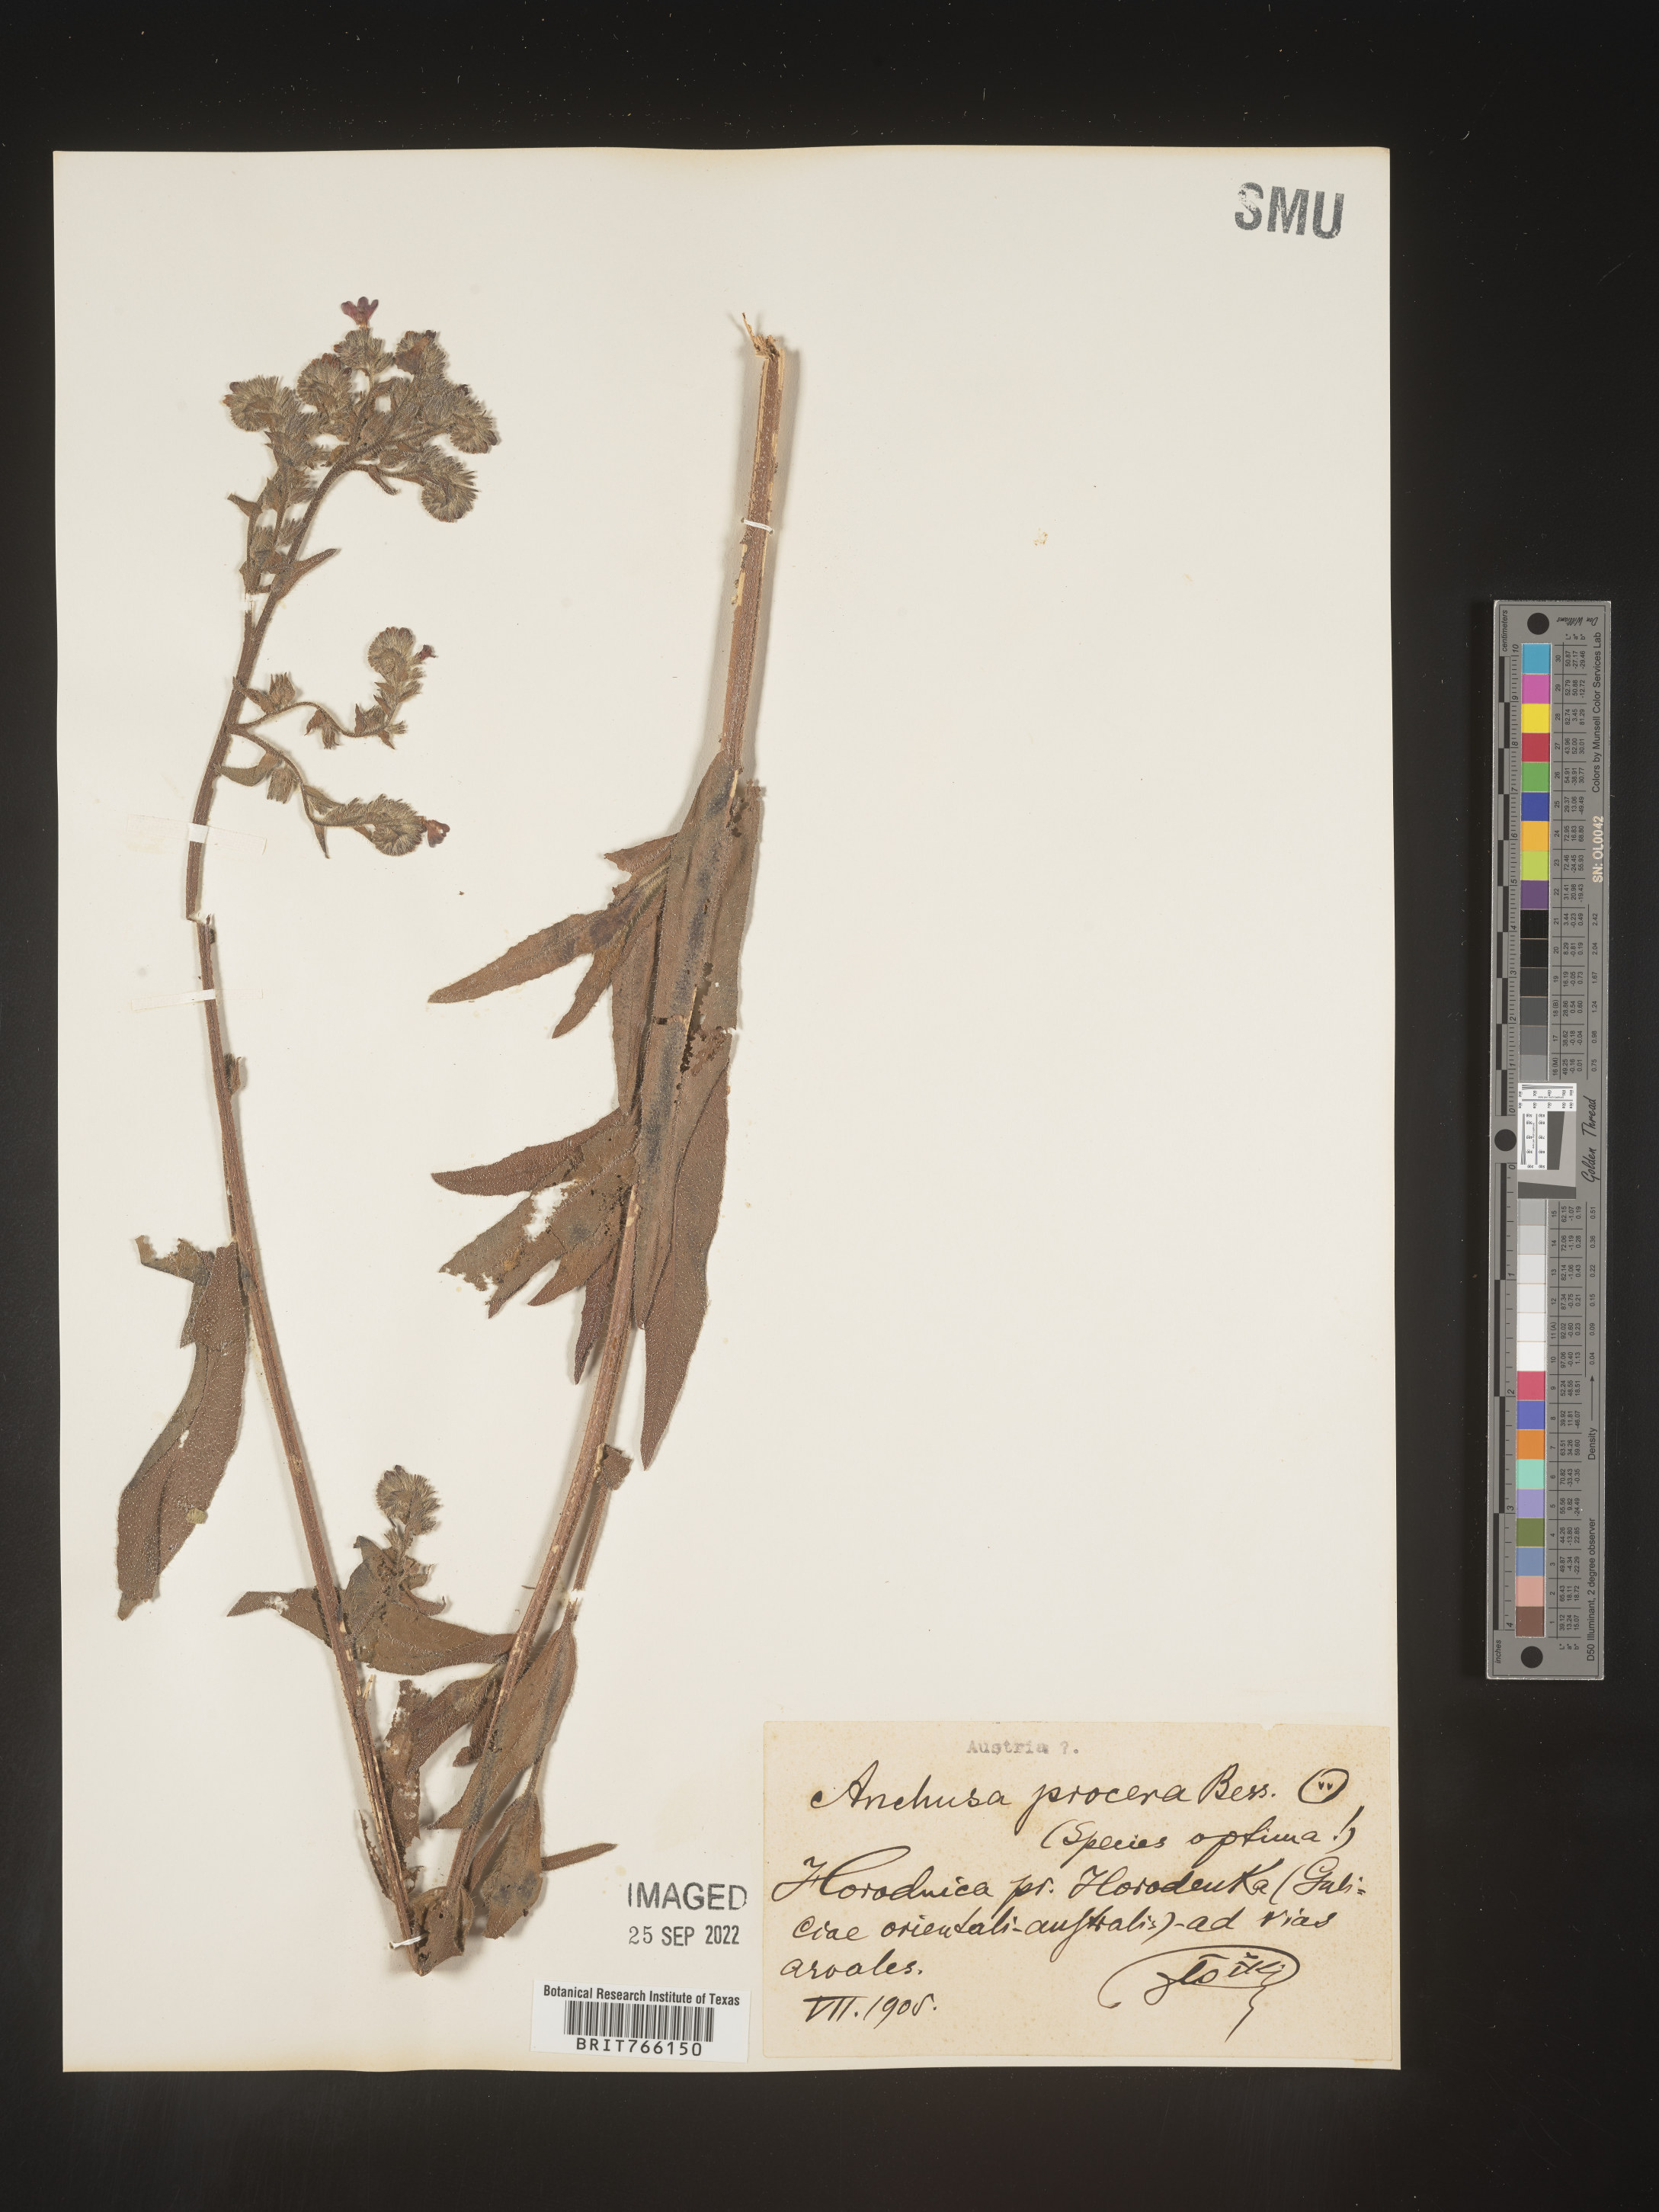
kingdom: Plantae
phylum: Tracheophyta
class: Magnoliopsida
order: Boraginales
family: Boraginaceae
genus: Anchusa
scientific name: Anchusa
